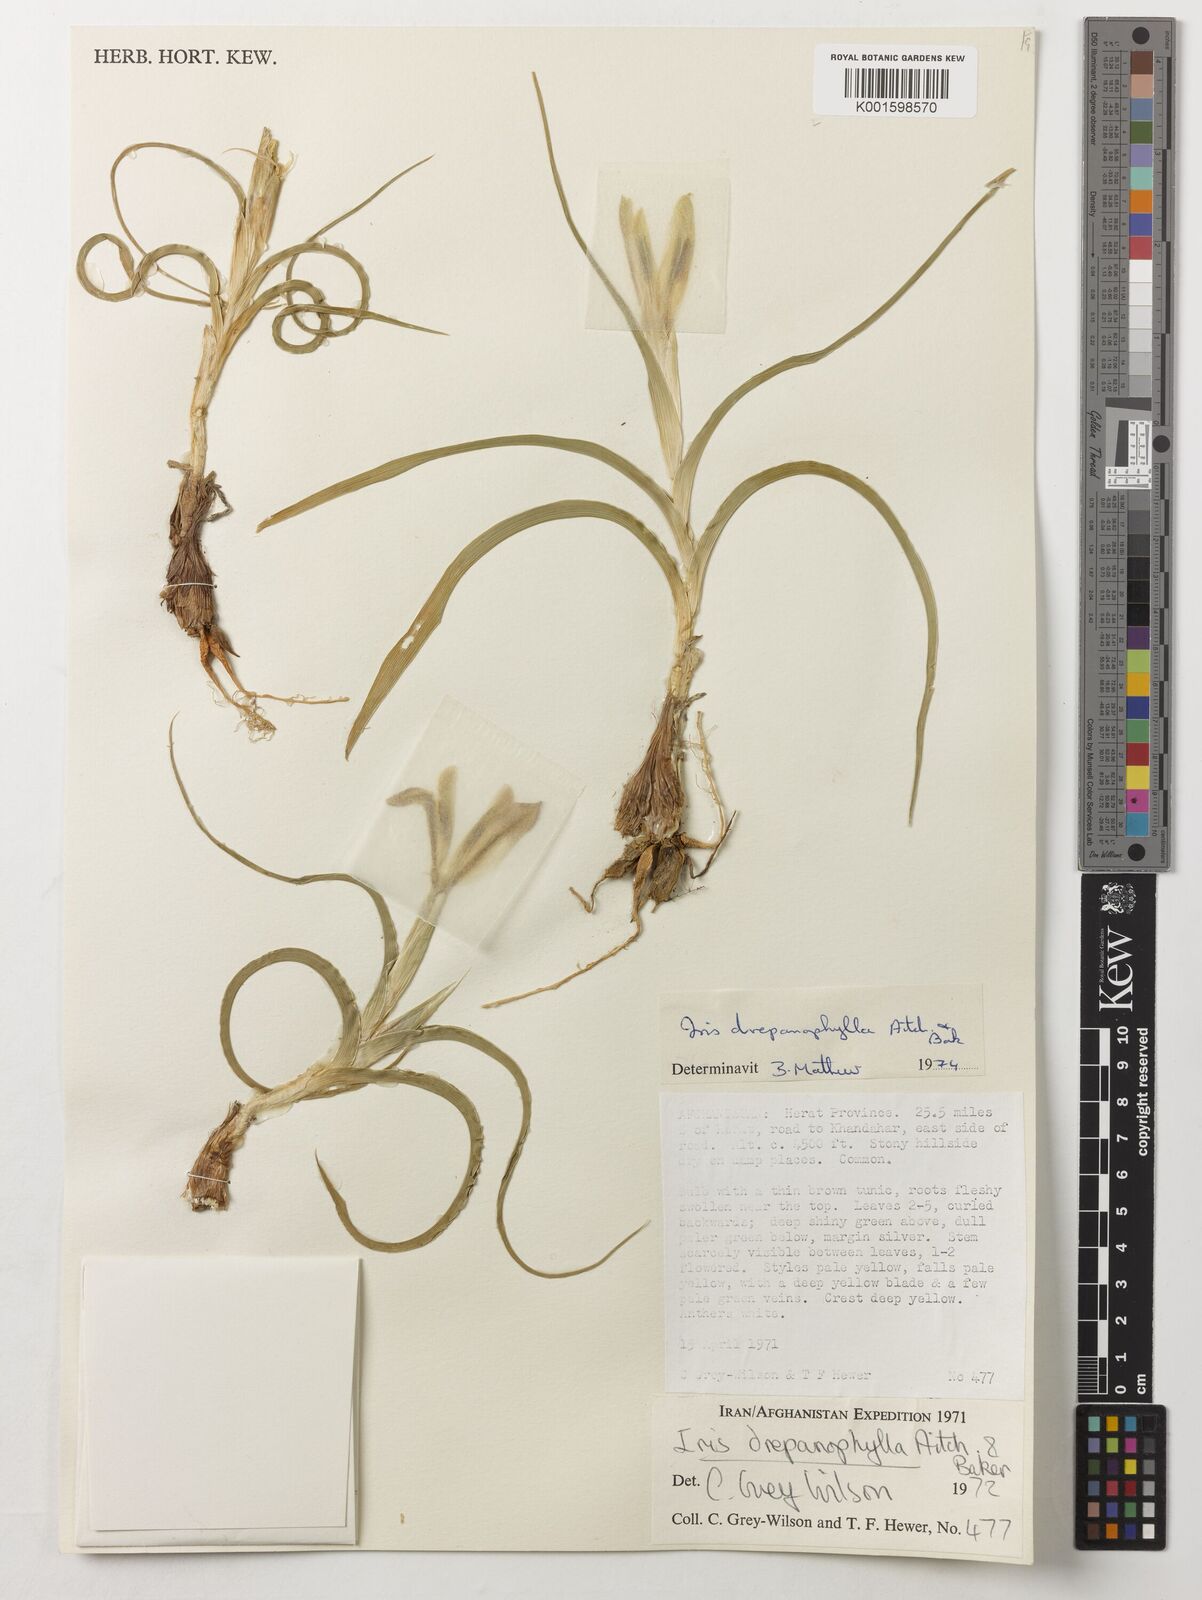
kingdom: Plantae
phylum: Tracheophyta
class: Liliopsida
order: Asparagales
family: Iridaceae
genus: Iris
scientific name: Iris drepanophylla
